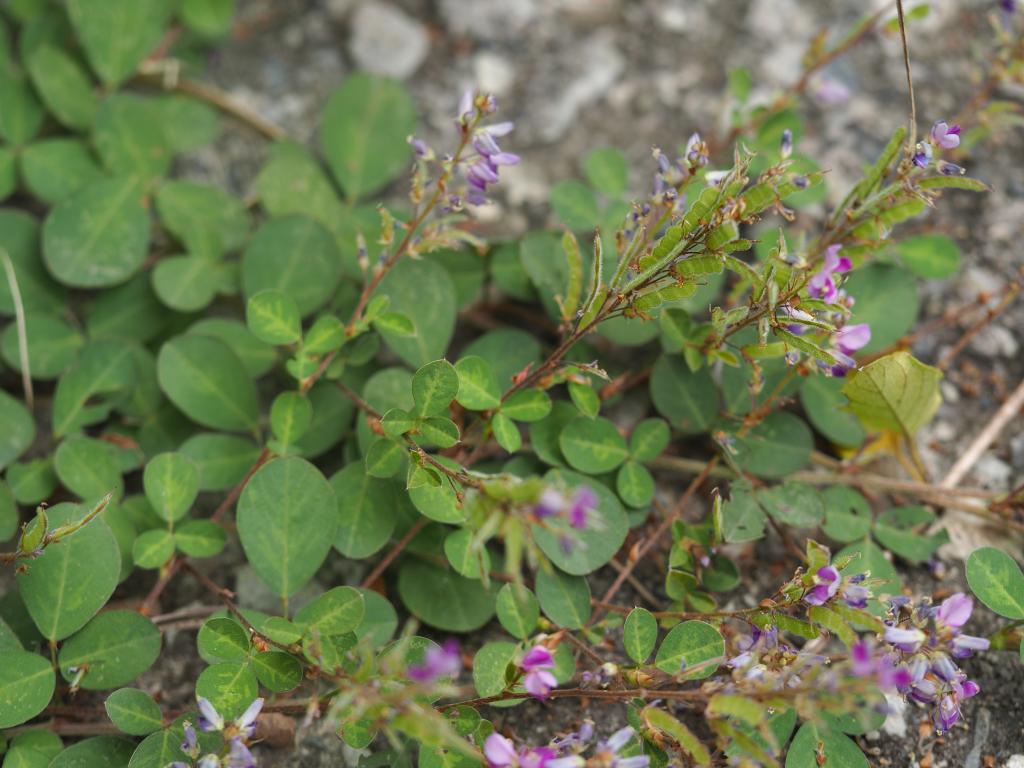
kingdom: Plantae
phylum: Tracheophyta
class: Magnoliopsida
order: Fabales
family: Fabaceae
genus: Grona
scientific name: Grona heterocarpos
